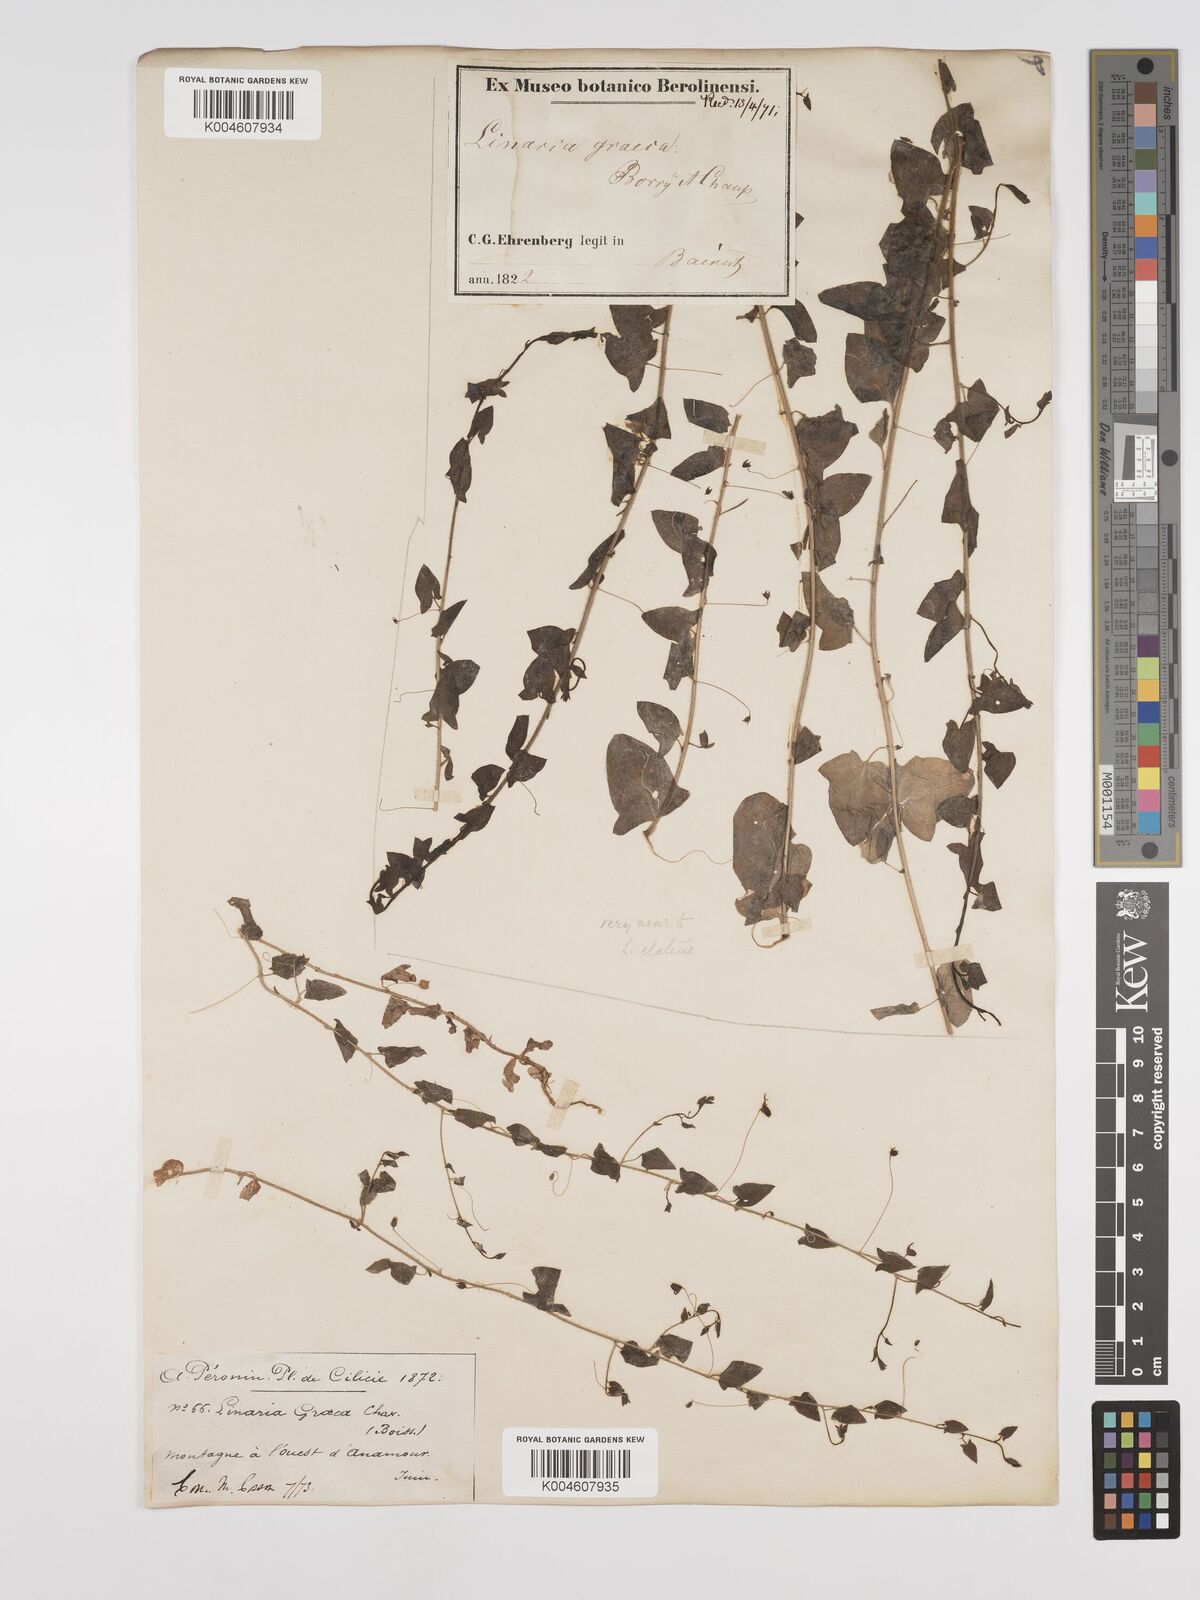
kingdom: Plantae
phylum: Tracheophyta
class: Magnoliopsida
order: Lamiales
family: Plantaginaceae
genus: Kickxia
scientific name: Kickxia commutata
